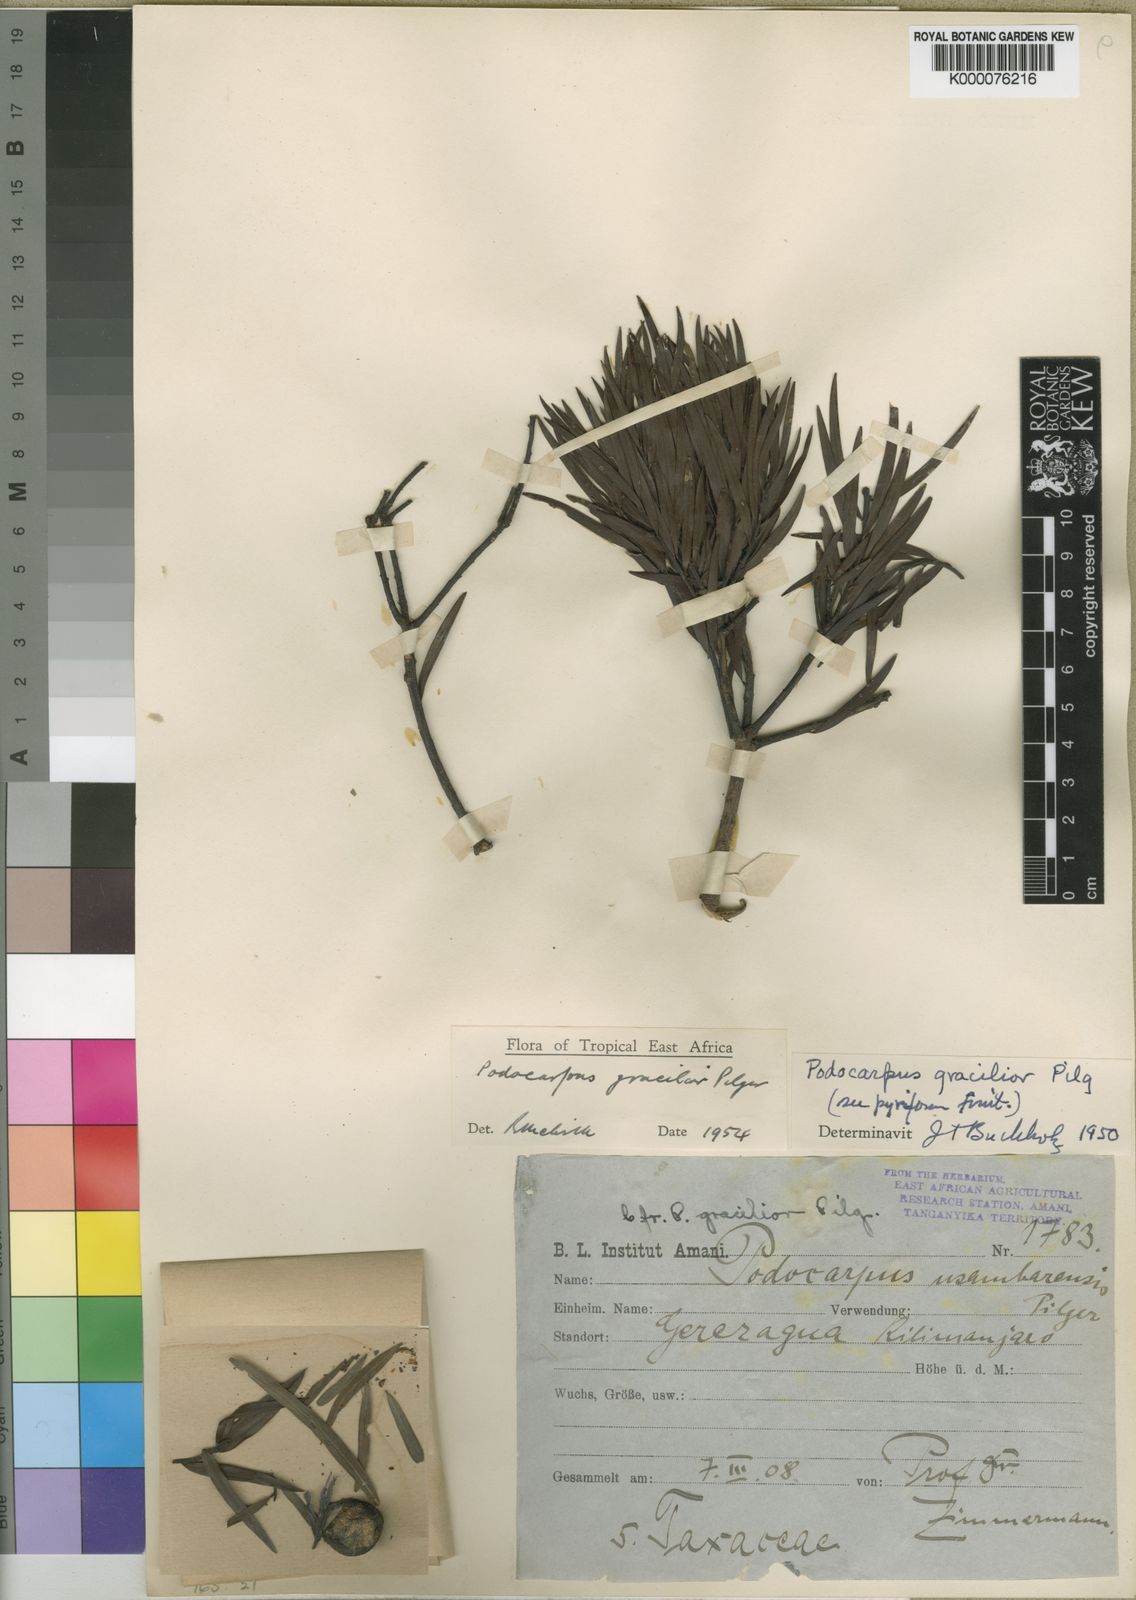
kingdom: Plantae
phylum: Tracheophyta
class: Pinopsida
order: Pinales
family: Podocarpaceae
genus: Afrocarpus
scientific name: Afrocarpus
